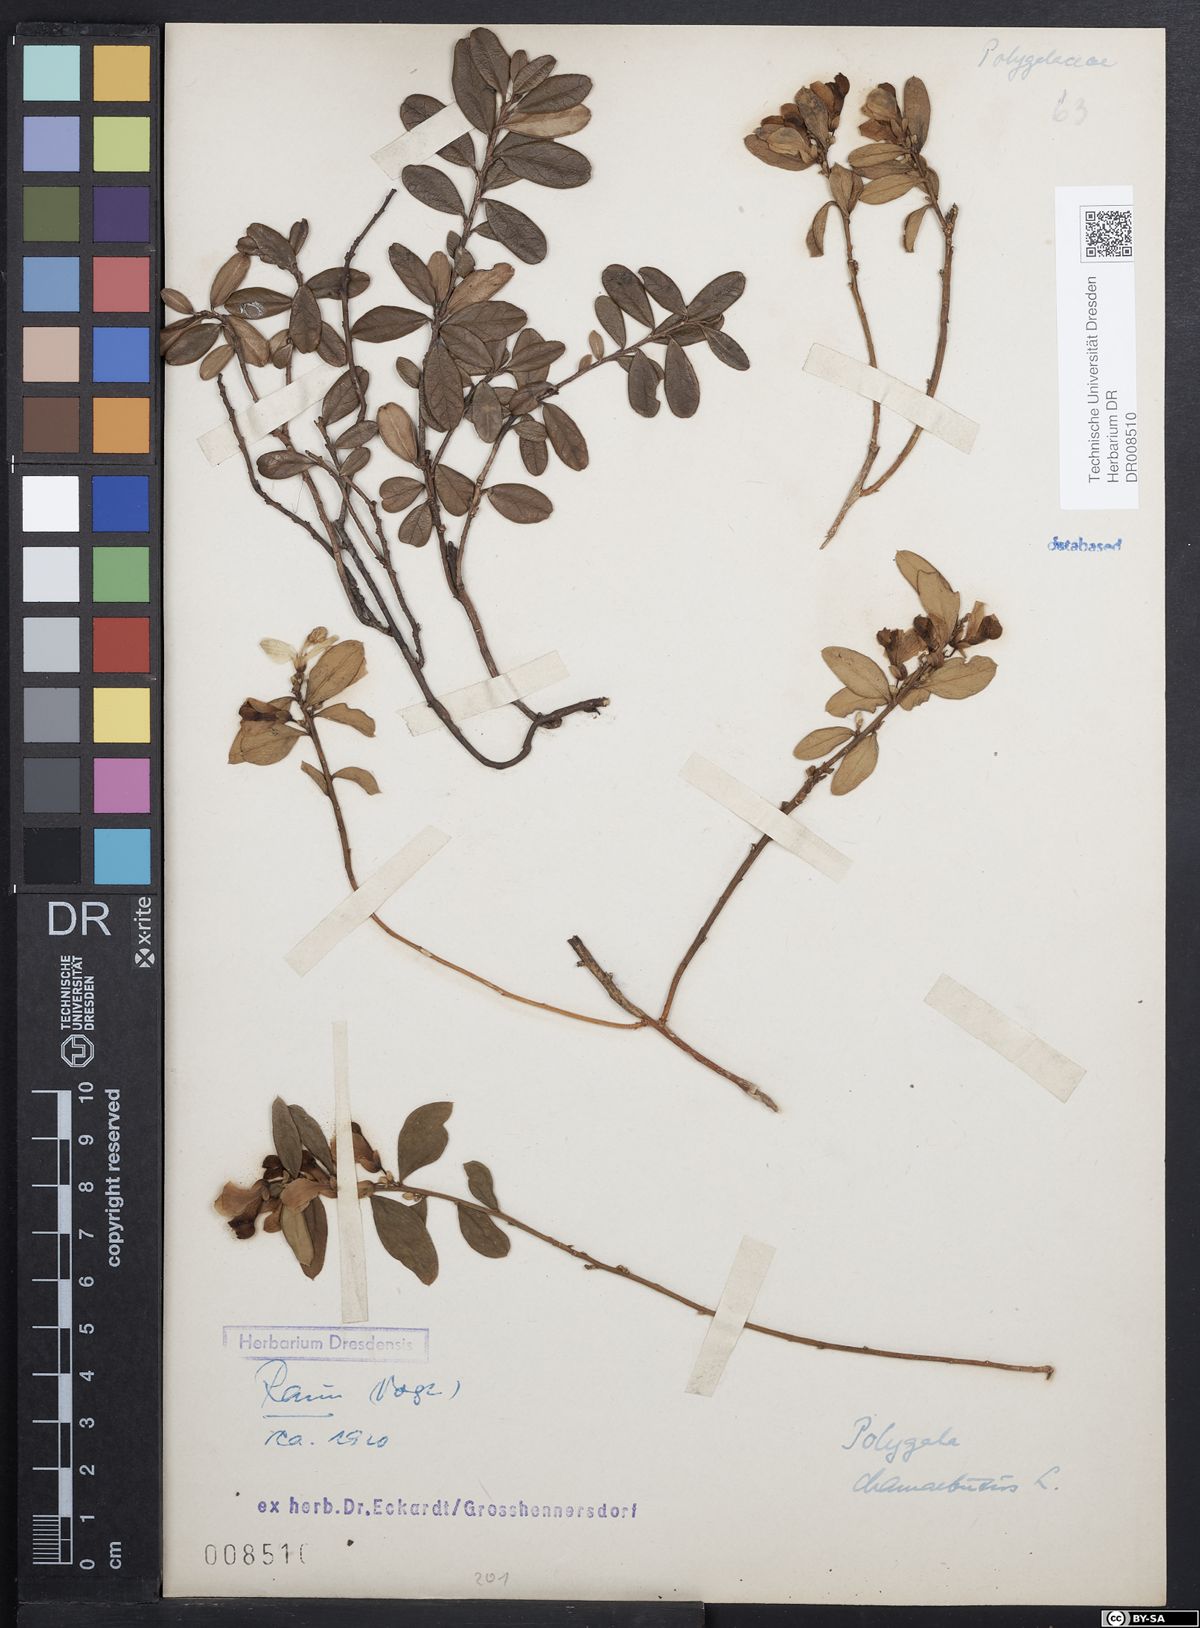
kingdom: Plantae
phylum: Tracheophyta
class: Magnoliopsida
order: Fabales
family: Polygalaceae
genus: Polygaloides
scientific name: Polygaloides chamaebuxus
